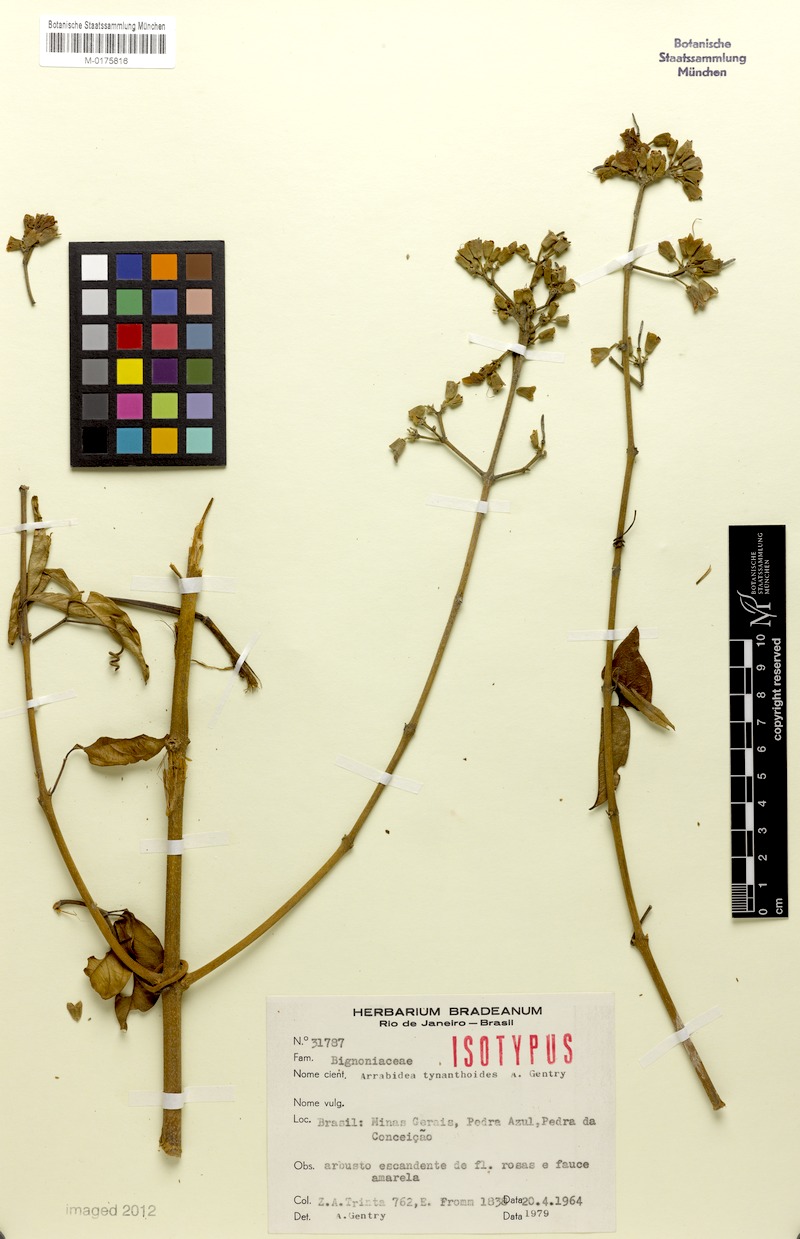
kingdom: Plantae
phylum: Tracheophyta
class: Magnoliopsida
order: Lamiales
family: Bignoniaceae
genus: Fridericia
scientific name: Fridericia tynanthoides
